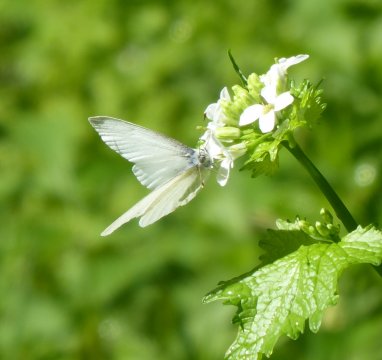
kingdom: Animalia
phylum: Arthropoda
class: Insecta
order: Lepidoptera
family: Pieridae
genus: Pieris
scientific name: Pieris virginiensis
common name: West Virginia White
